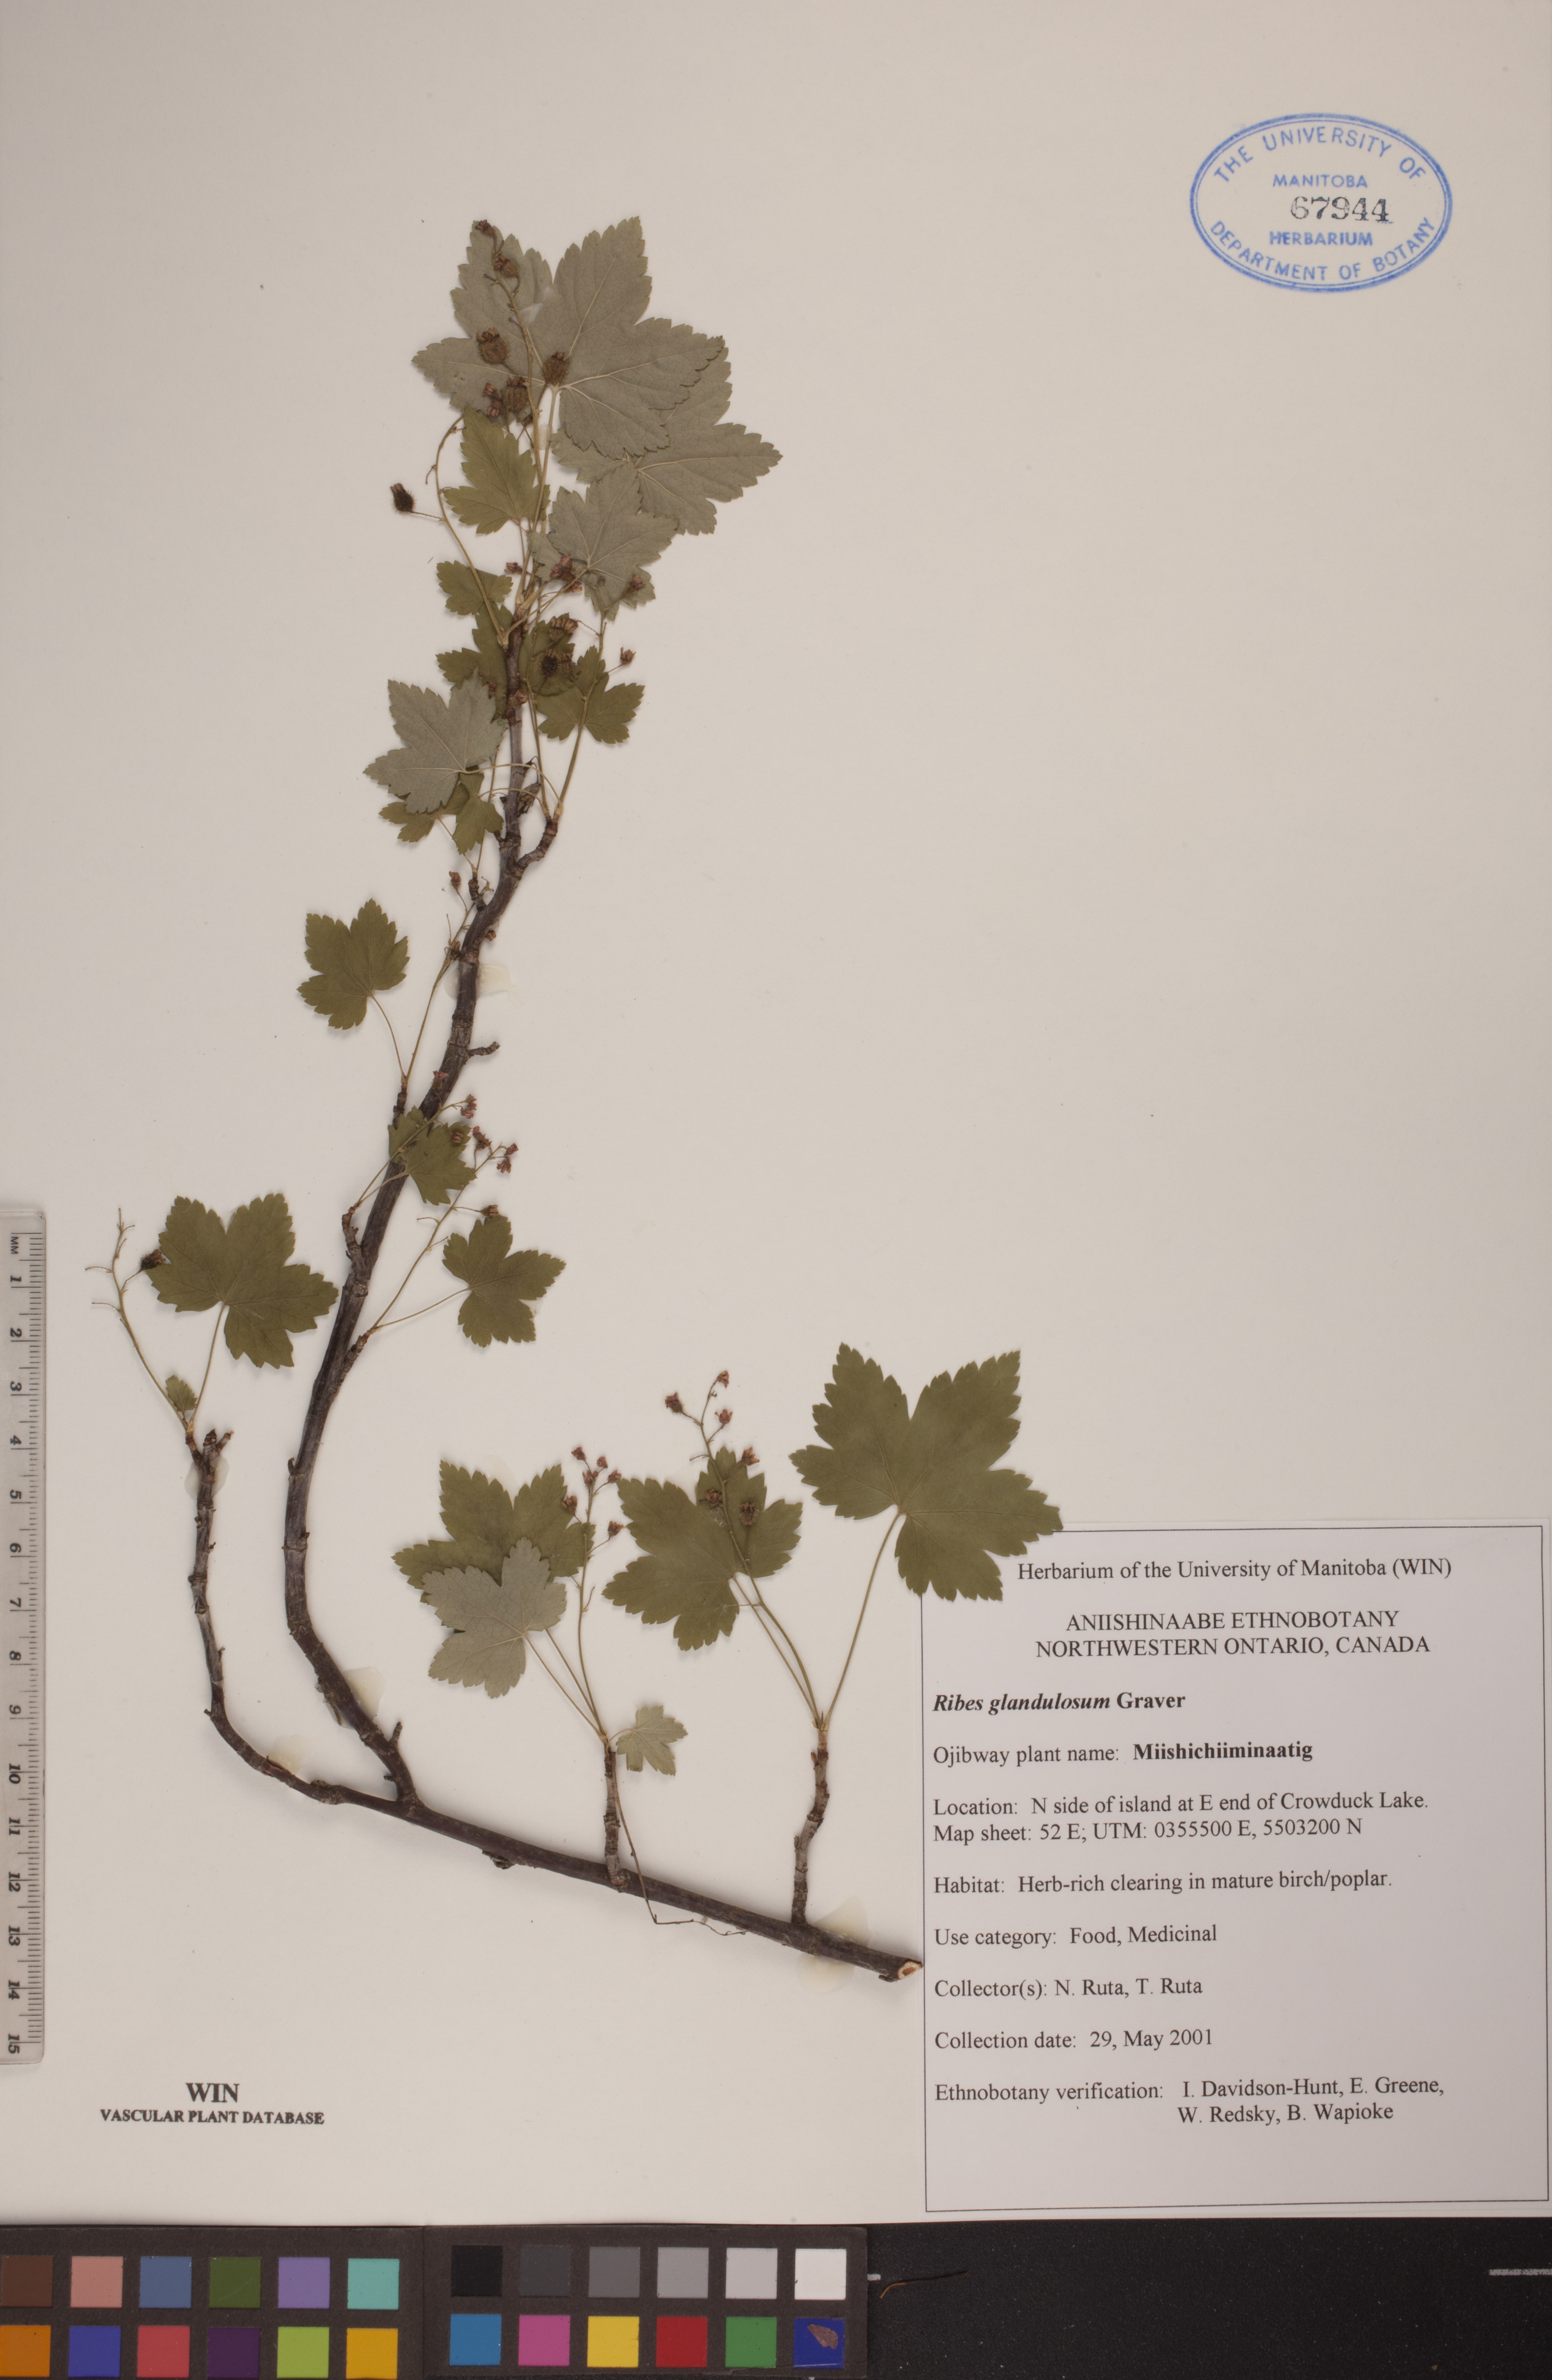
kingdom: Plantae
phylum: Tracheophyta
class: Magnoliopsida
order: Saxifragales
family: Grossulariaceae
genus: Ribes
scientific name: Ribes glandulosum
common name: Skunk currant
